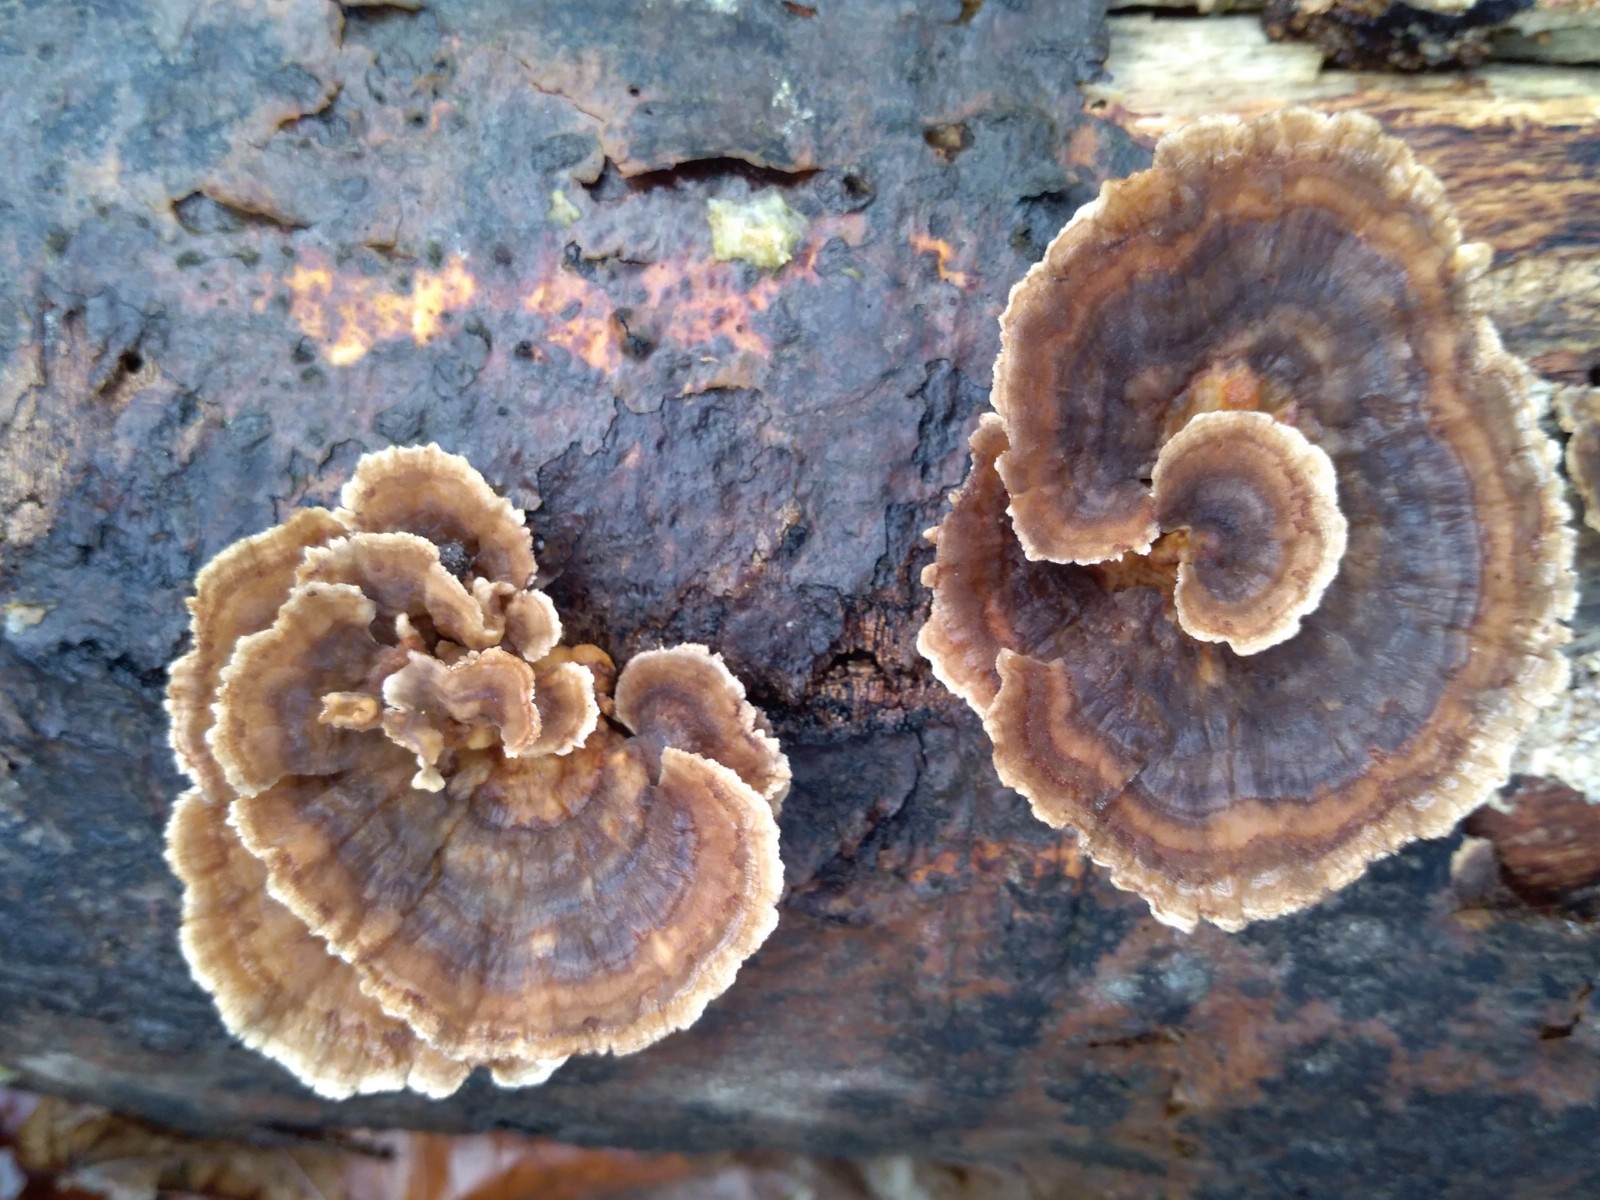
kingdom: Fungi
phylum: Basidiomycota
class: Agaricomycetes
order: Polyporales
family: Polyporaceae
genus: Trametes
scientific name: Trametes versicolor
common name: broget læderporesvamp
